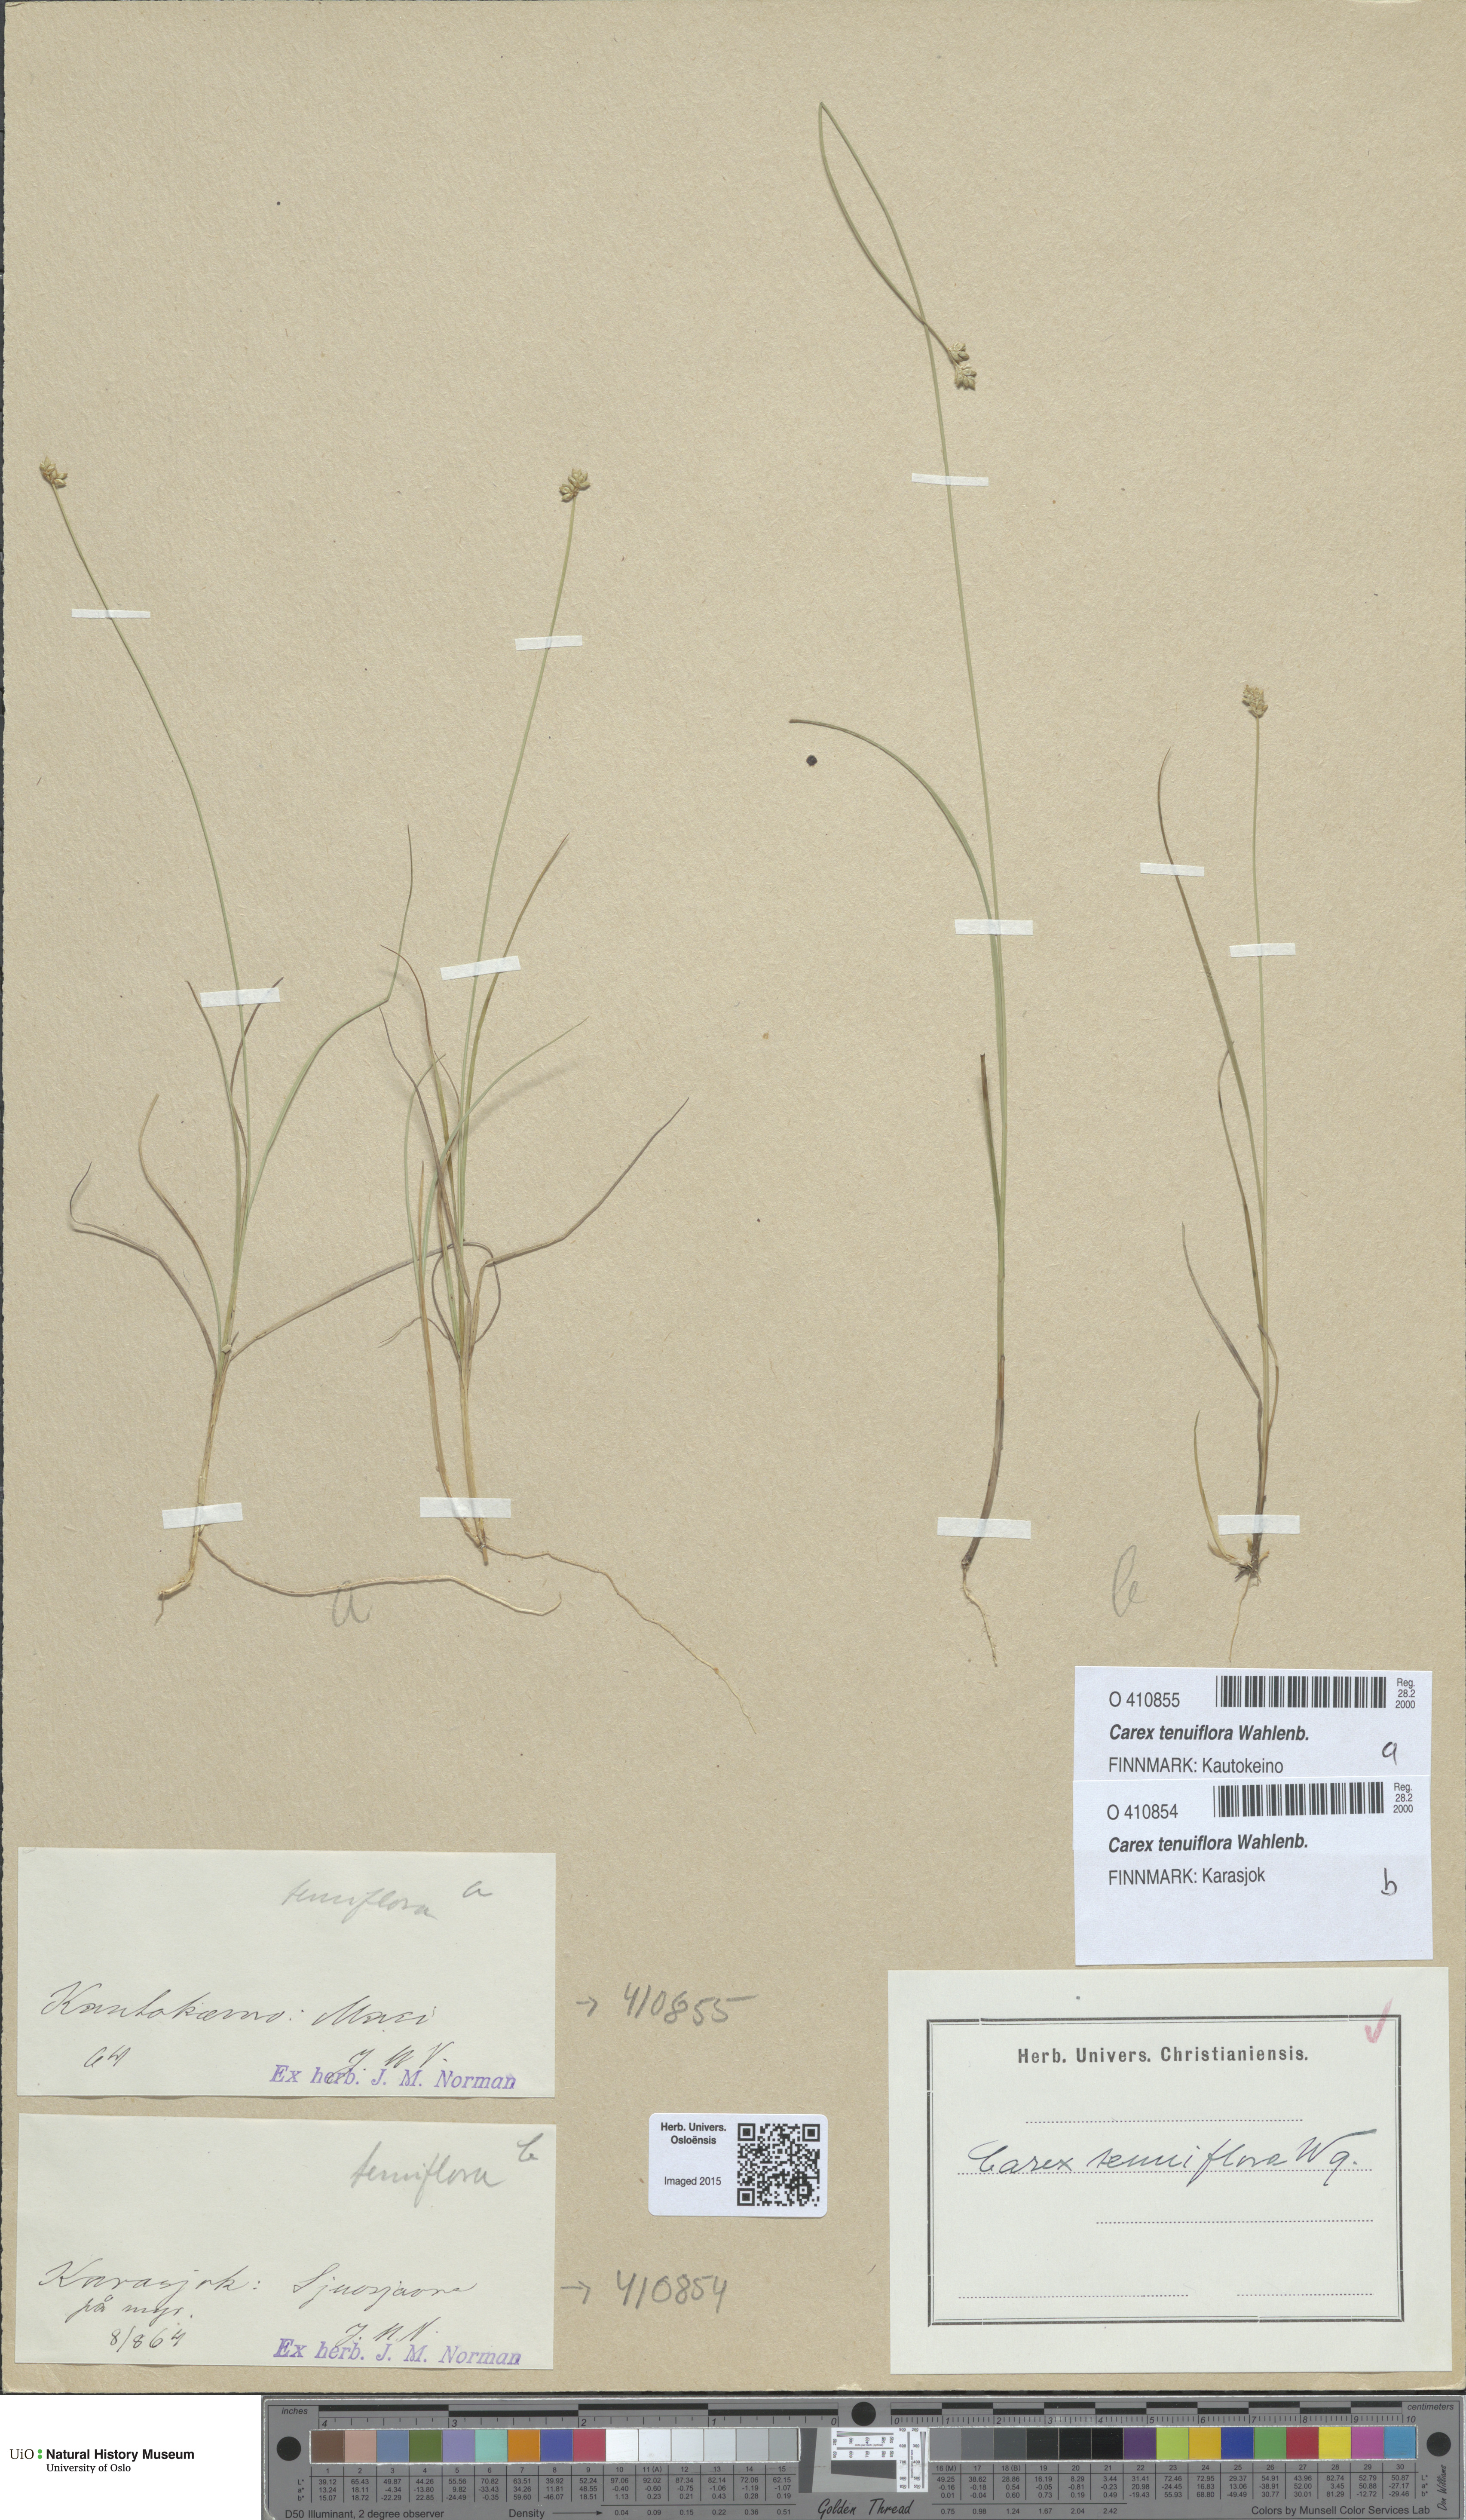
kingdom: Plantae
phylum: Tracheophyta
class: Liliopsida
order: Poales
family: Cyperaceae
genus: Carex
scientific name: Carex tenuiflora
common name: Sparse-flowered sedge
